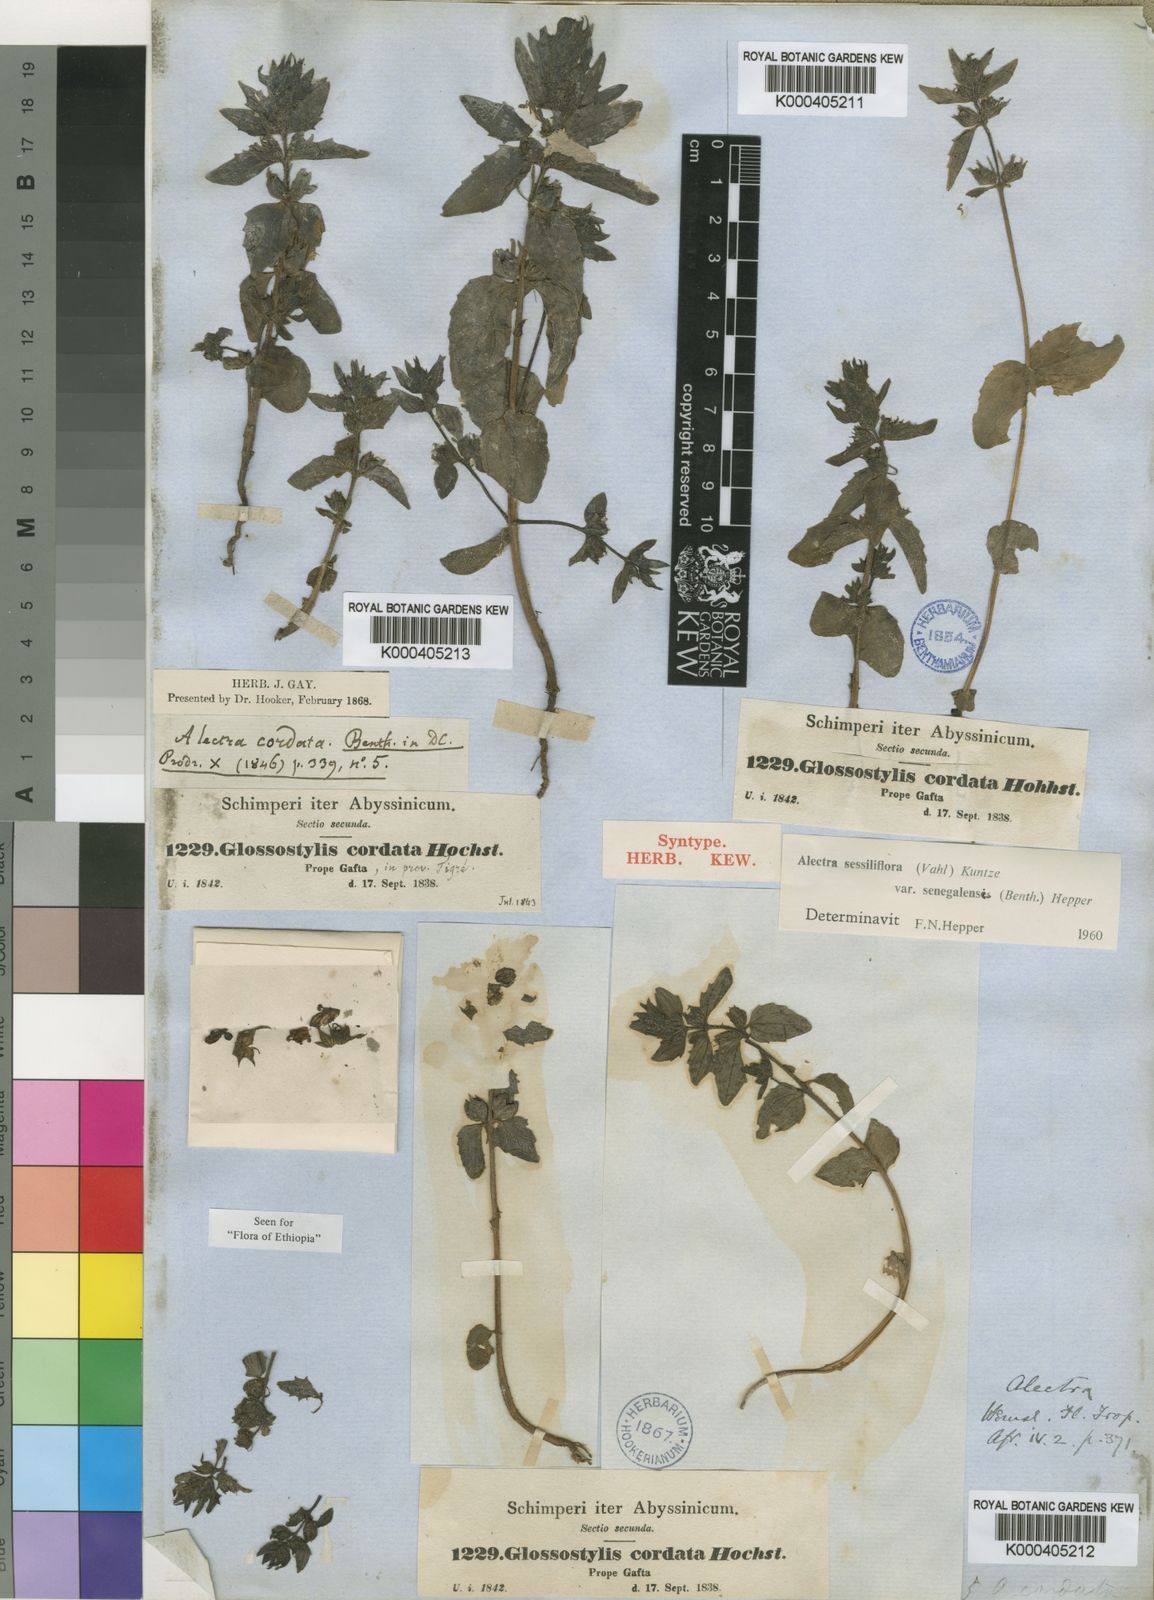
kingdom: Plantae
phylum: Tracheophyta
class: Magnoliopsida
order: Lamiales
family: Orobanchaceae
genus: Alectra
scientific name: Alectra sessiliflora
